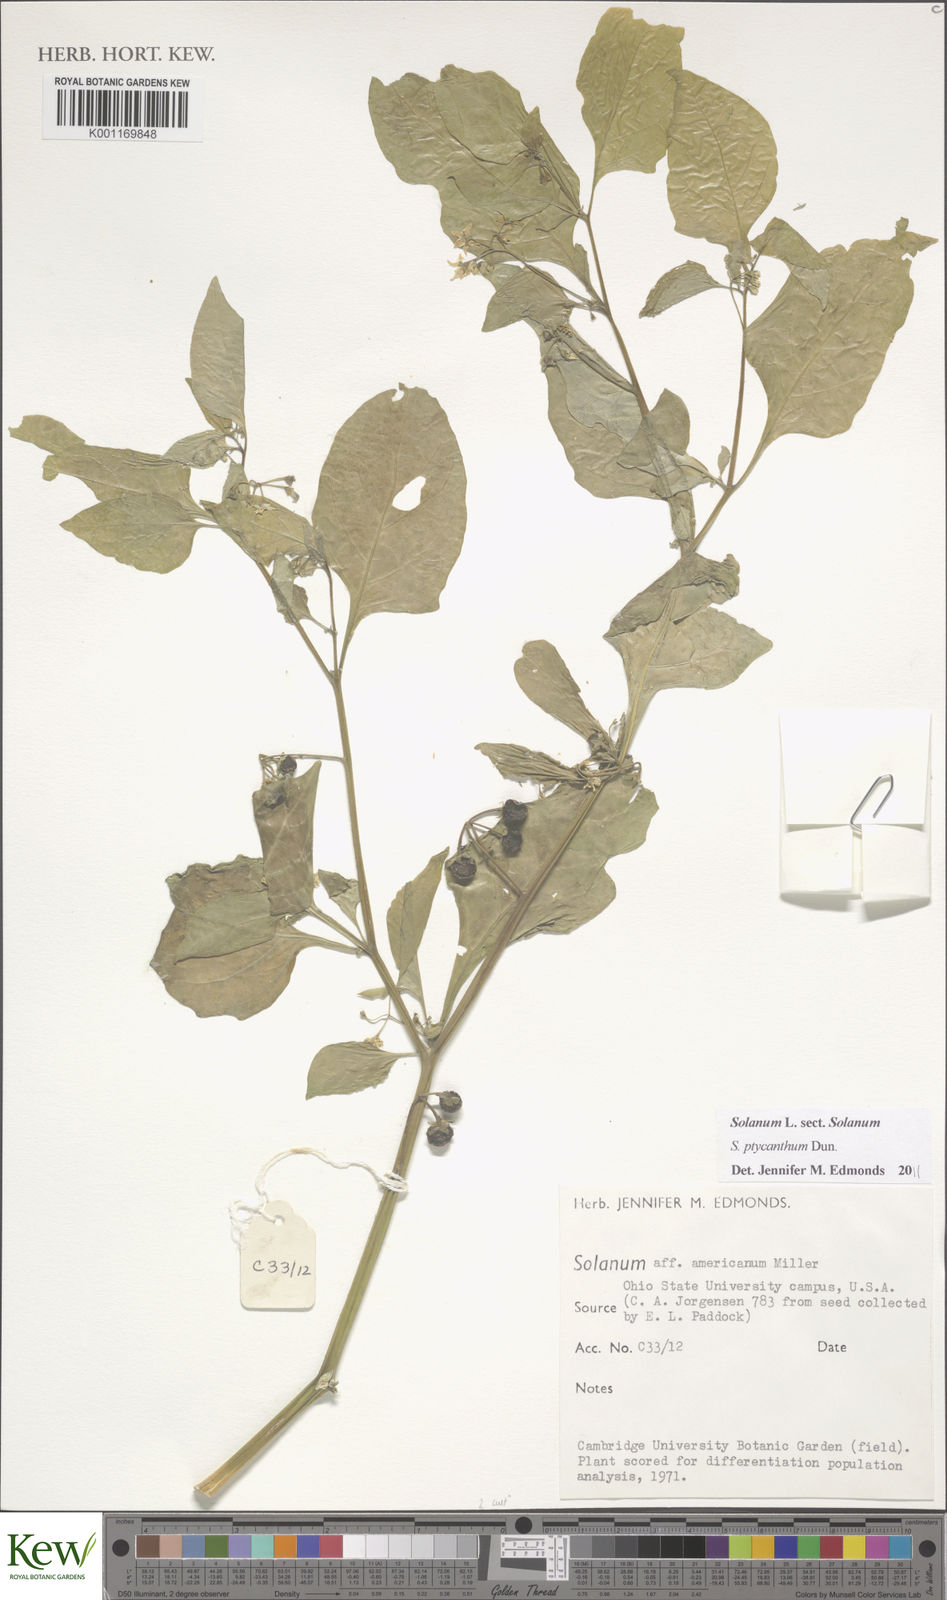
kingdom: Plantae
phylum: Tracheophyta
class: Magnoliopsida
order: Solanales
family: Solanaceae
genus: Solanum
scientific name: Solanum americanum
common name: American black nightshade
